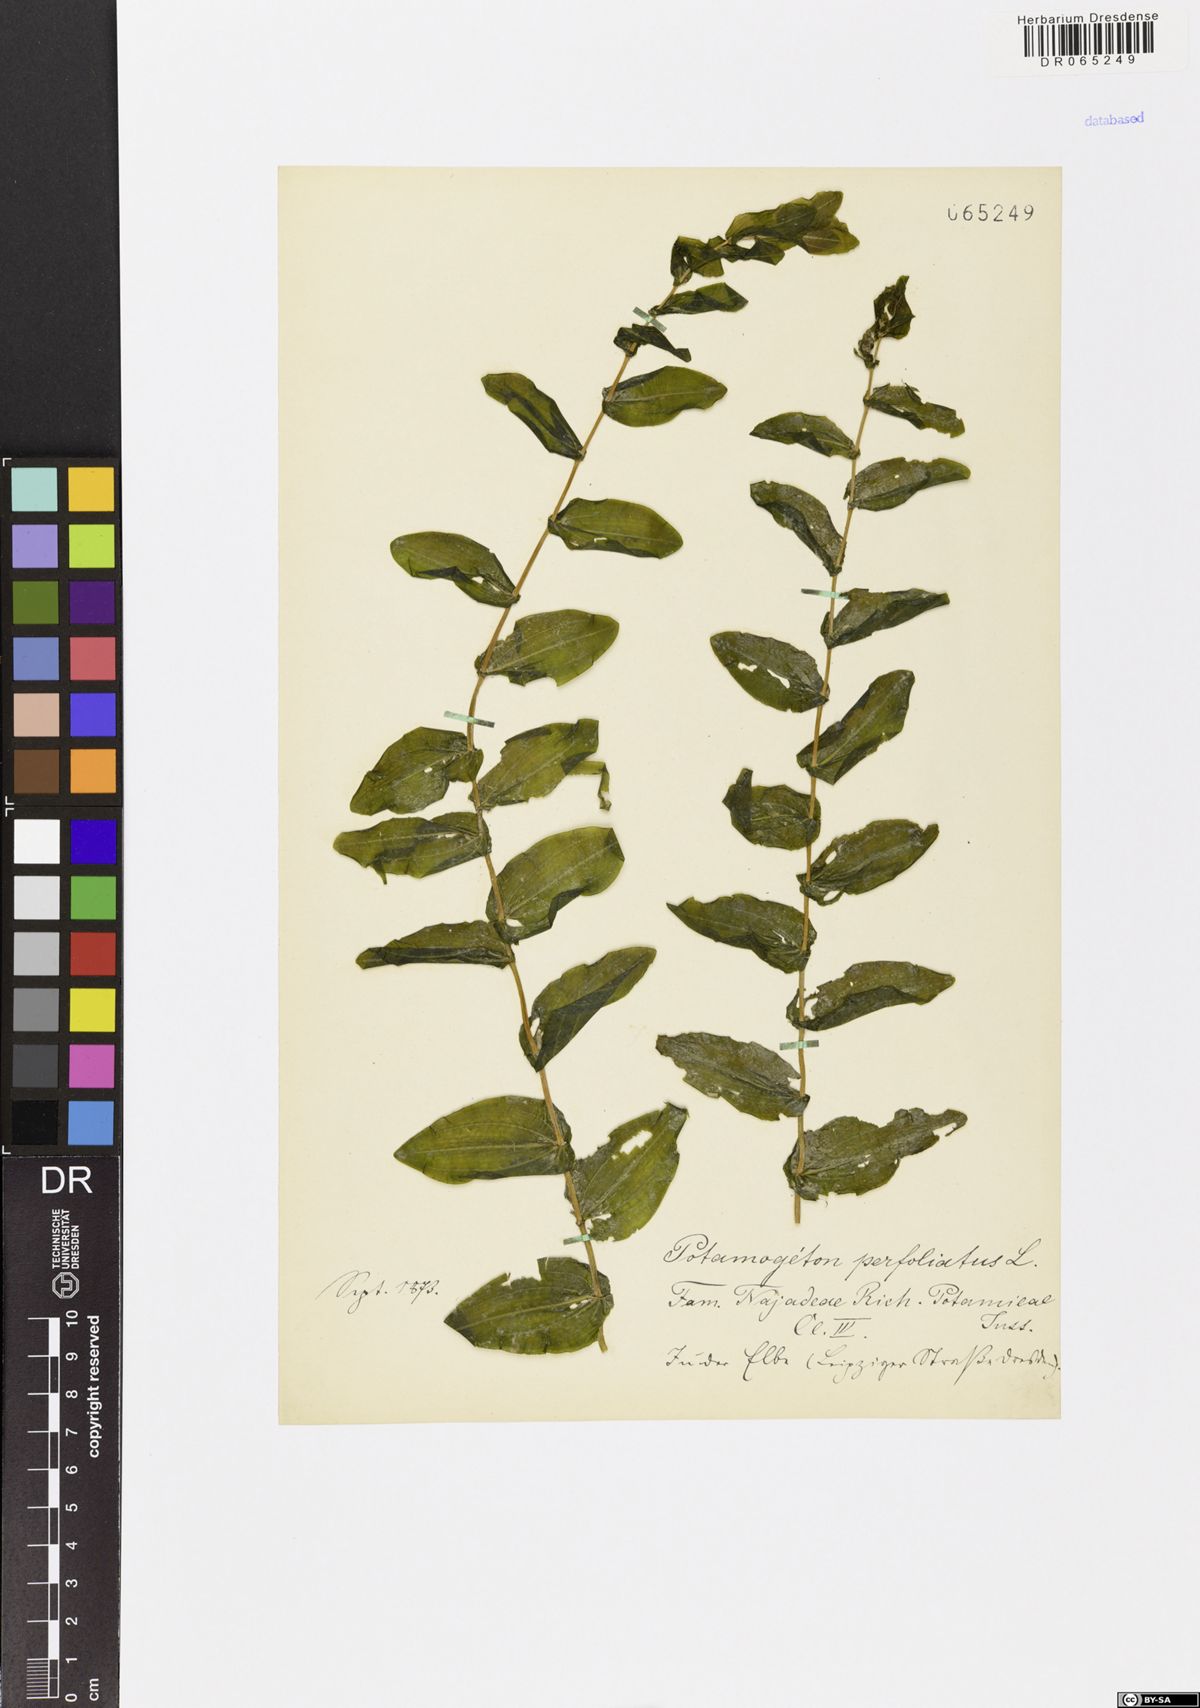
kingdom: Plantae
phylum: Tracheophyta
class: Liliopsida
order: Alismatales
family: Potamogetonaceae
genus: Potamogeton
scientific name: Potamogeton perfoliatus
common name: Perfoliate pondweed
